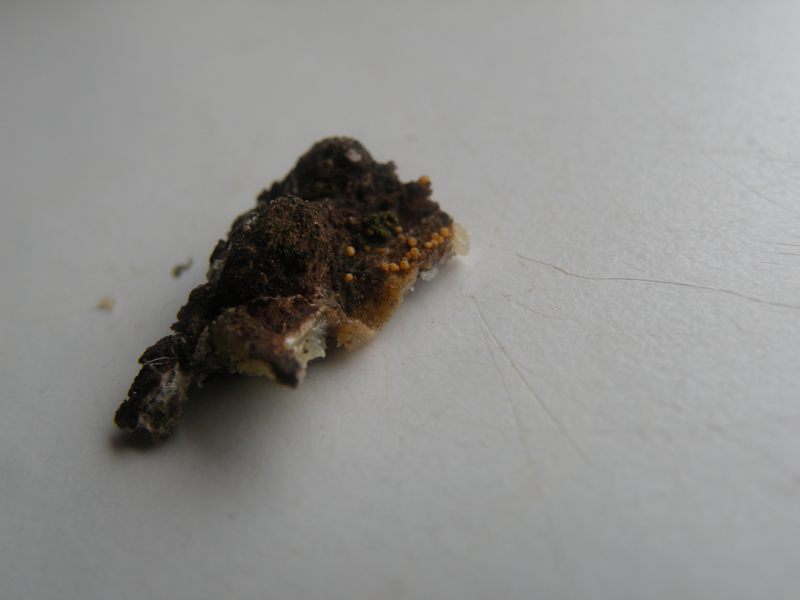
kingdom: Fungi
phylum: Ascomycota
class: Sareomycetes
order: Sareales
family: Sareaceae
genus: Sarea
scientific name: Sarea resinae
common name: orangegul harpiksskive
